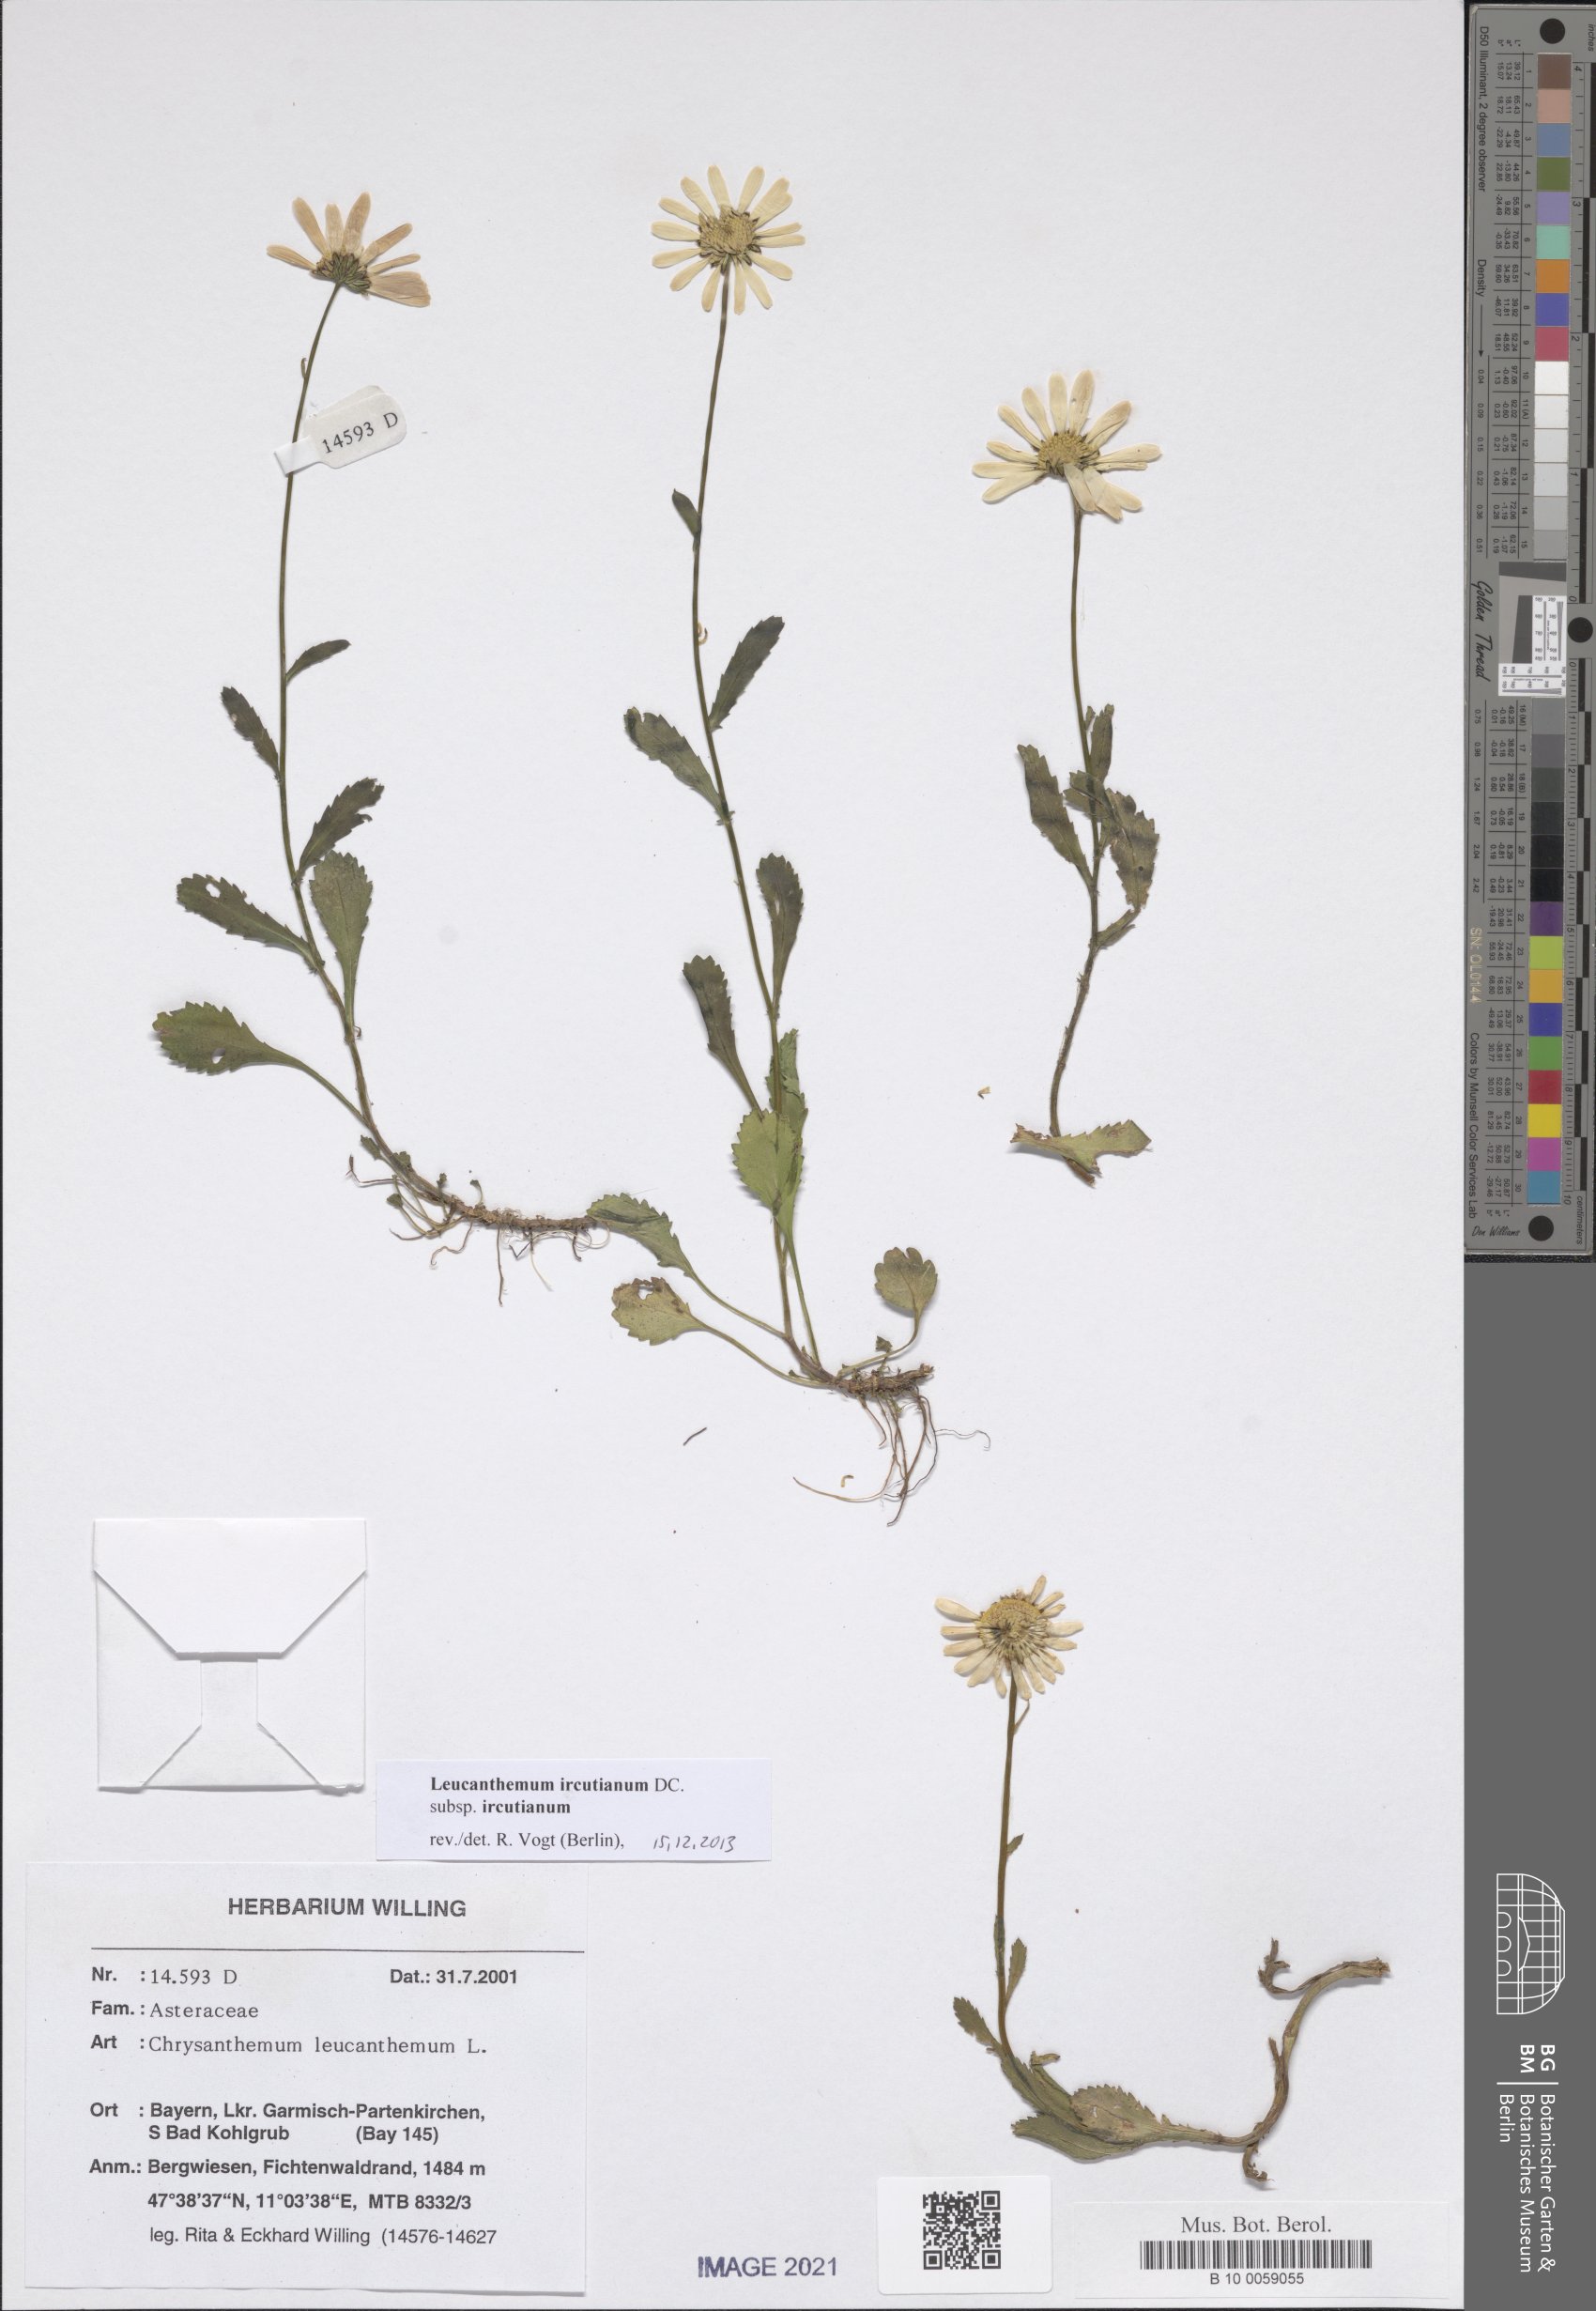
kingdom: Plantae
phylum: Tracheophyta
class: Magnoliopsida
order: Asterales
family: Asteraceae
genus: Leucanthemum
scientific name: Leucanthemum ircutianum
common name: Daisy
